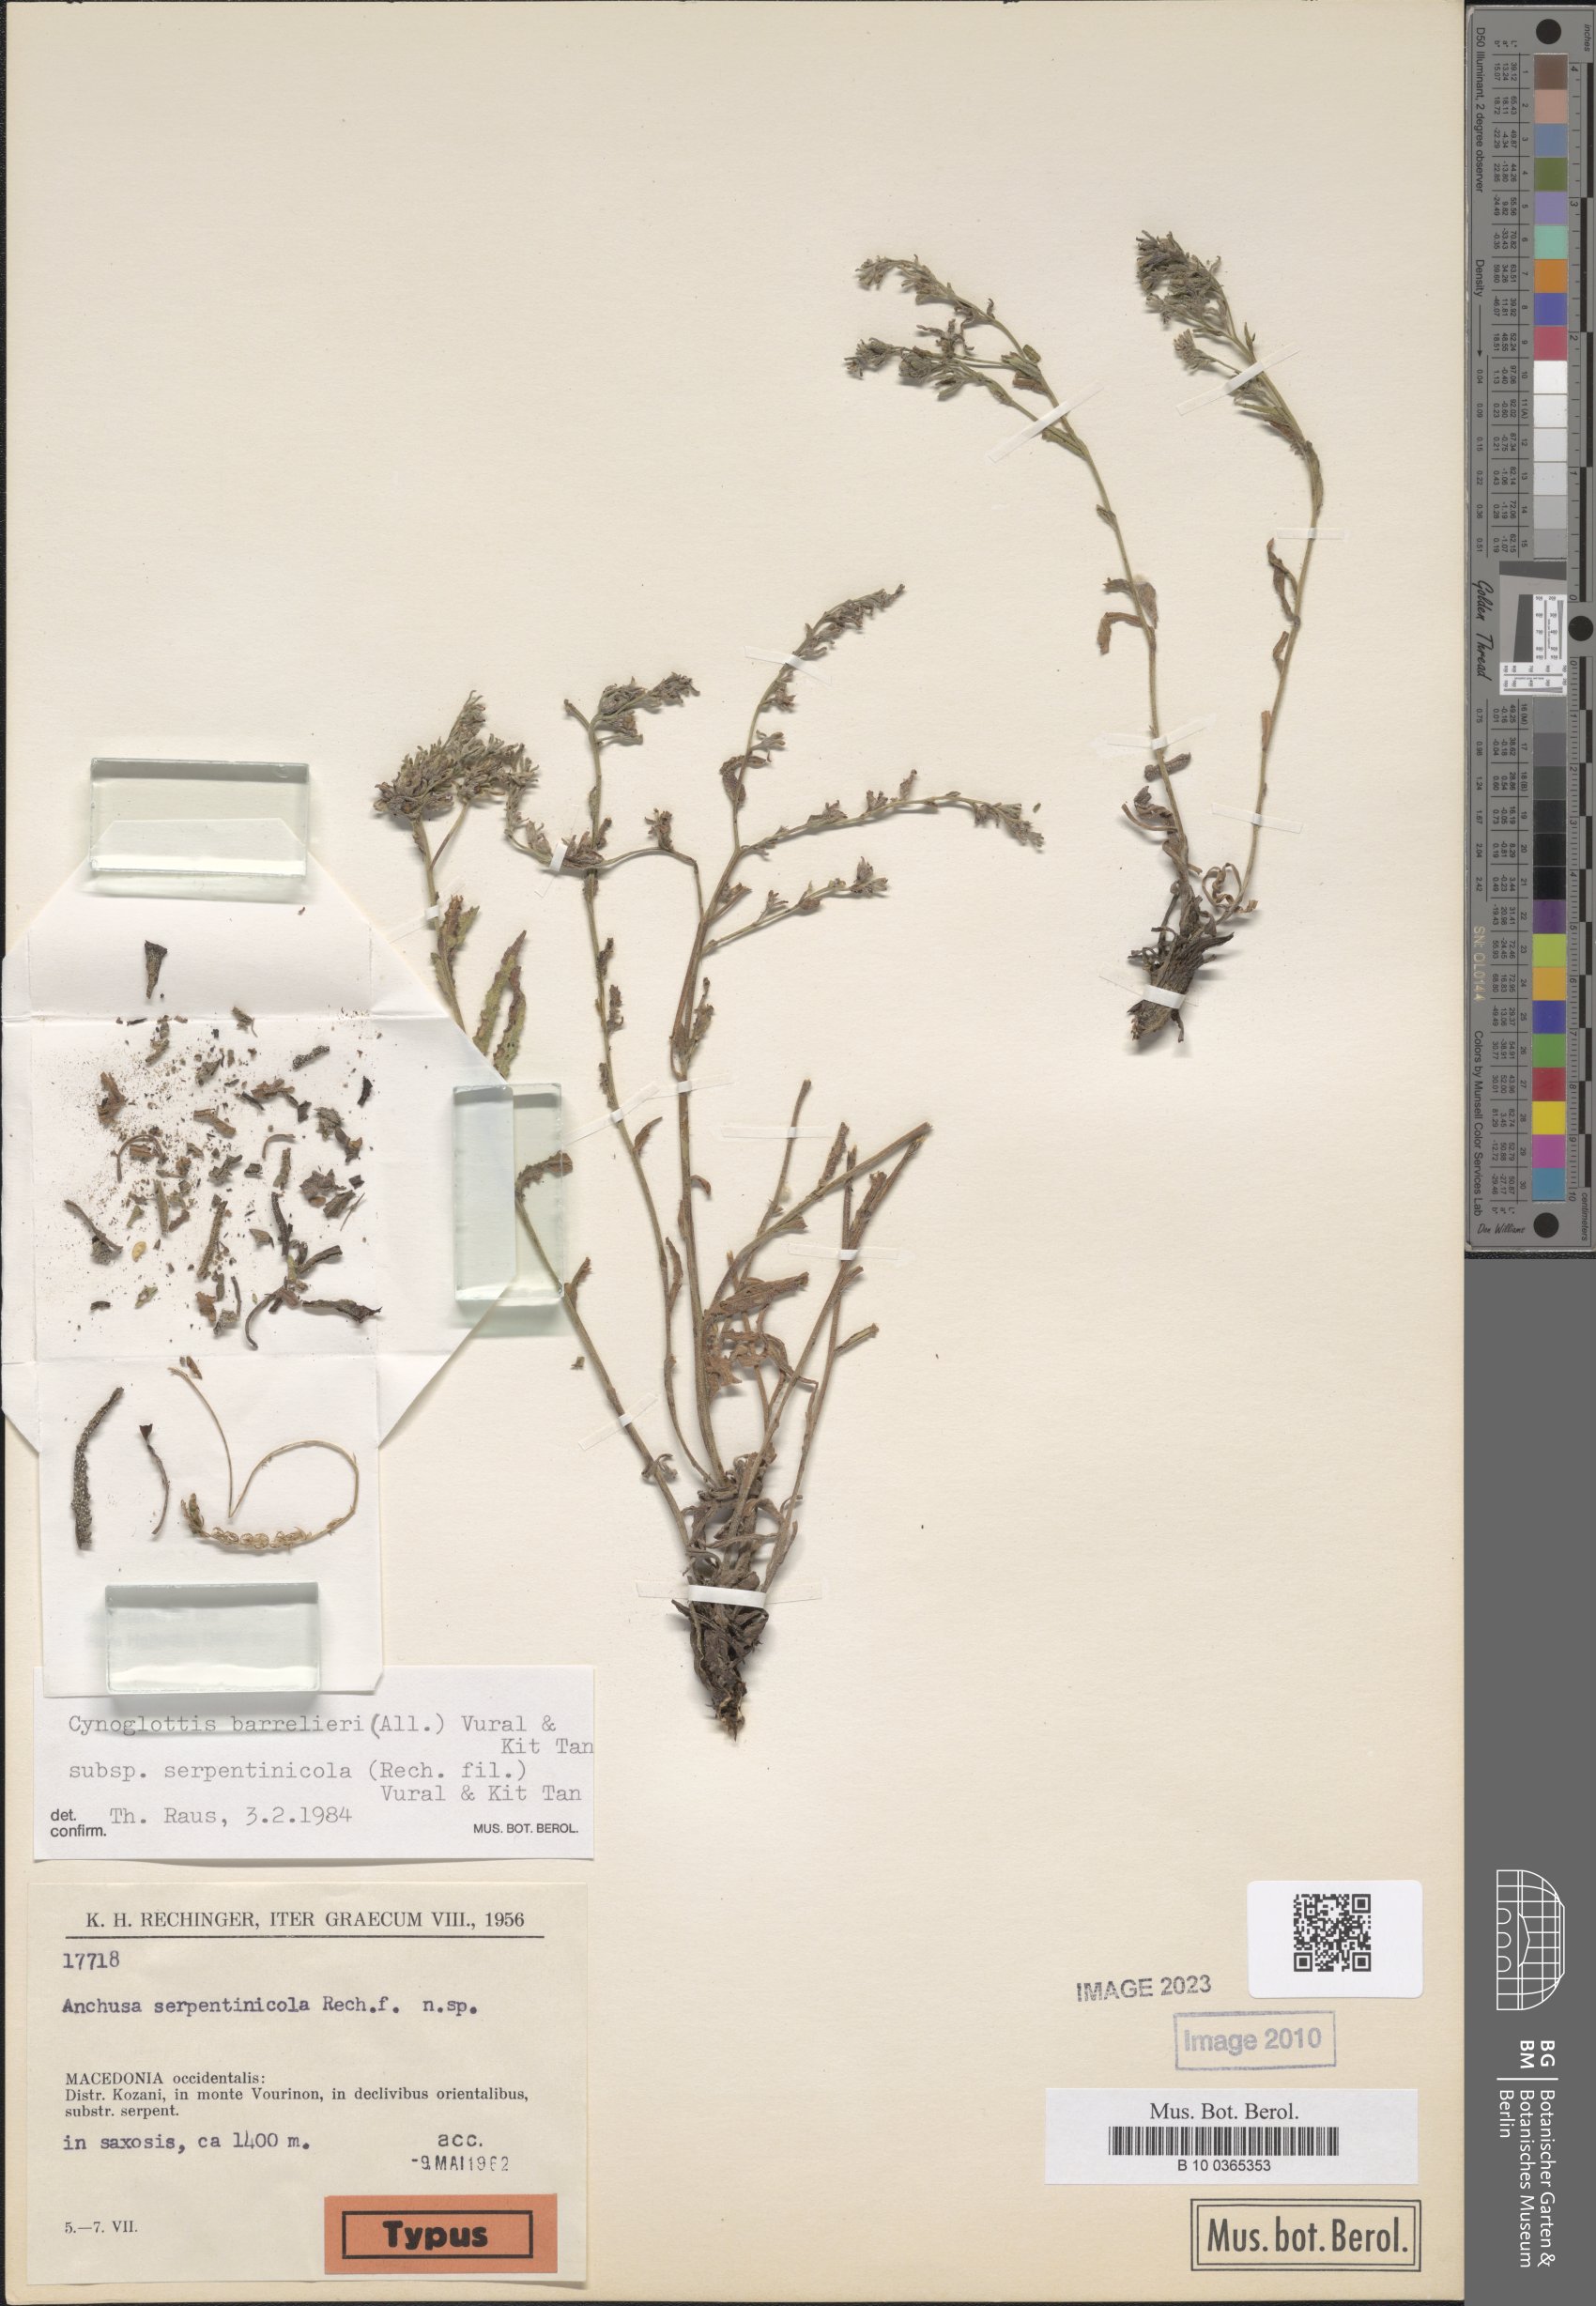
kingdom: Plantae
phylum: Tracheophyta
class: Magnoliopsida
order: Boraginales
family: Boraginaceae
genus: Cynoglottis
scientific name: Cynoglottis barrelieri
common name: False alkanet
